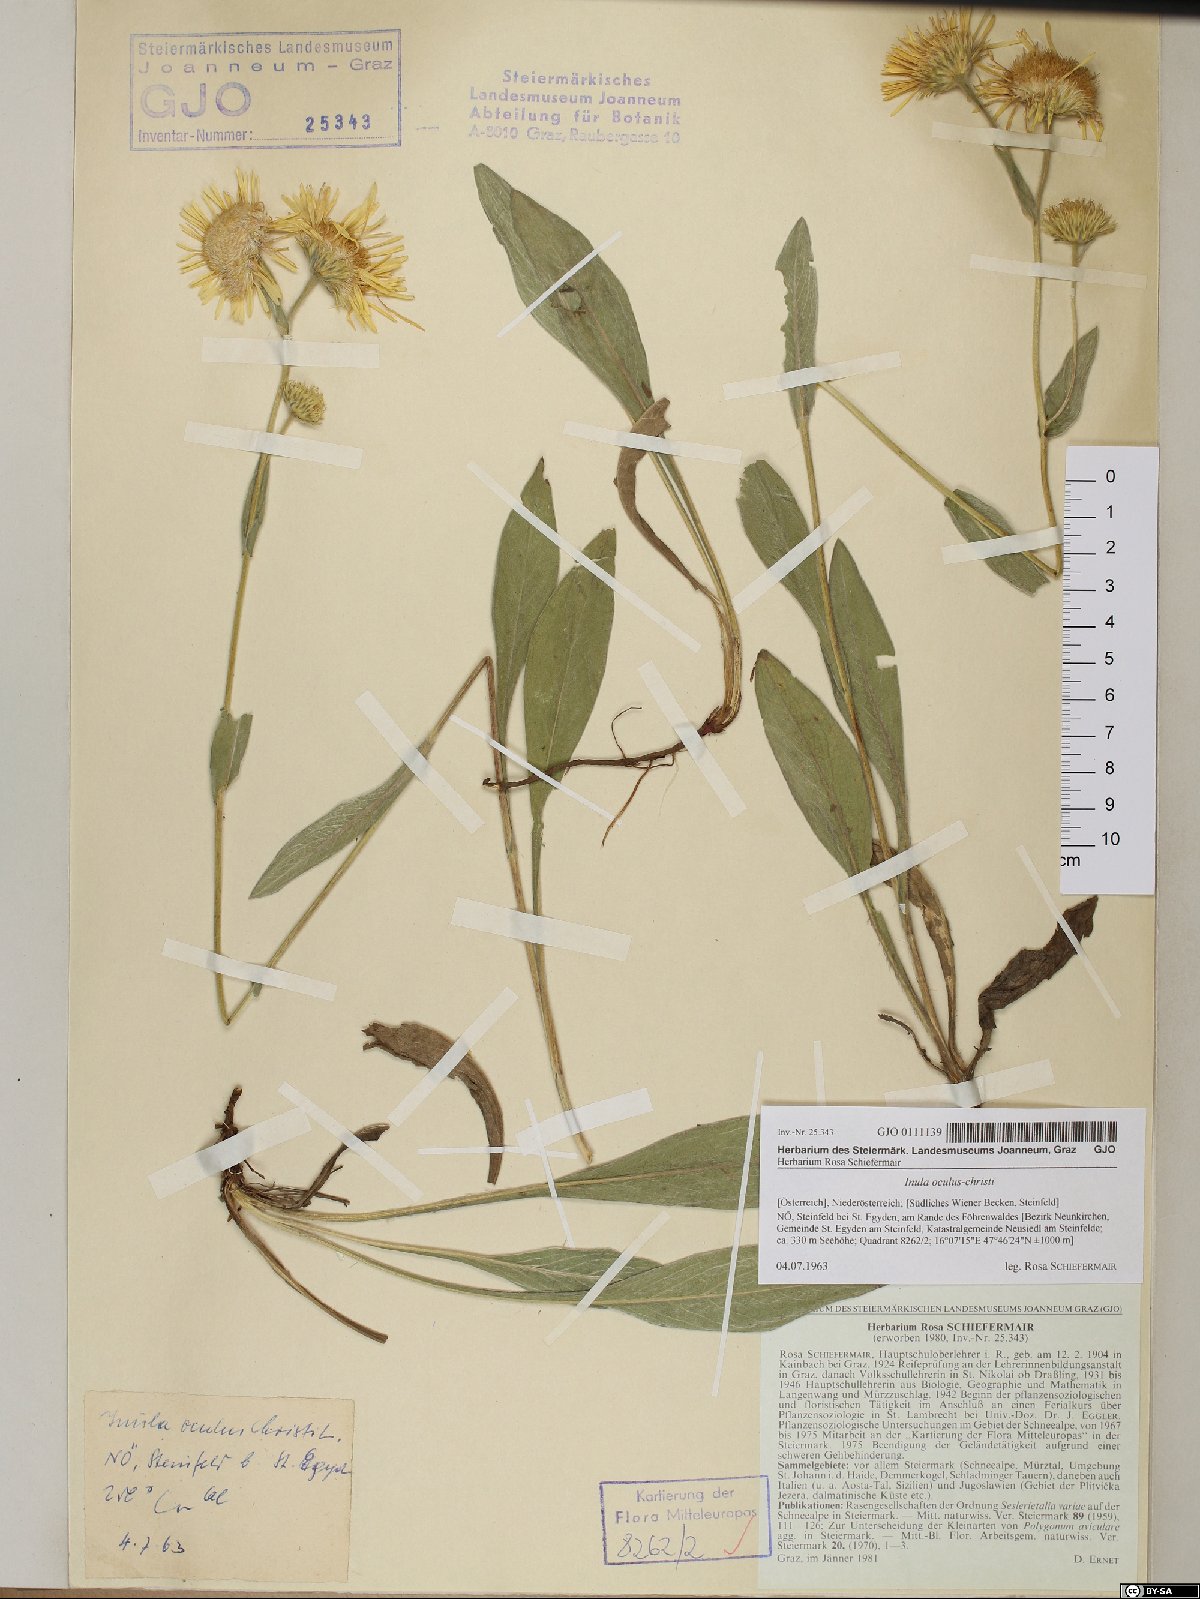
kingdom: Plantae
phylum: Tracheophyta
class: Magnoliopsida
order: Asterales
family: Asteraceae
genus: Pentanema
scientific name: Pentanema oculus-christi
